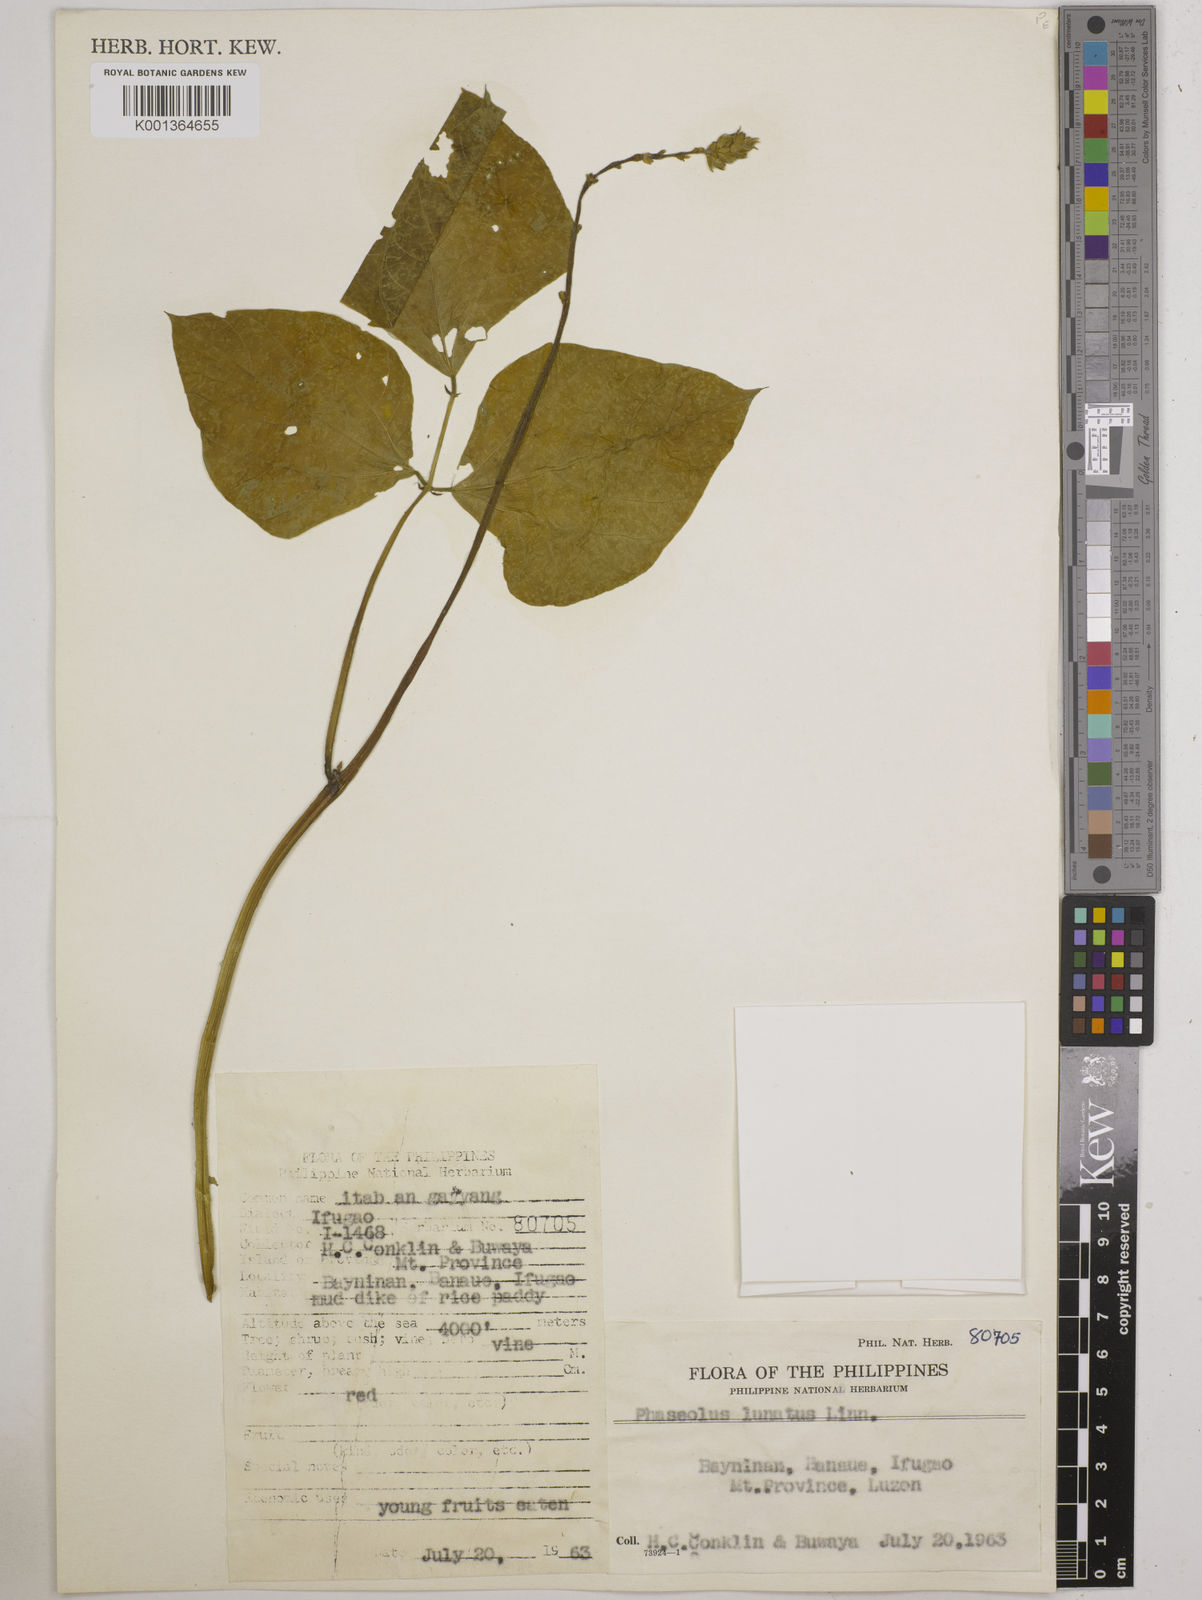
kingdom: Plantae
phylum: Tracheophyta
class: Magnoliopsida
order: Fabales
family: Fabaceae
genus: Phaseolus
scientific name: Phaseolus lunatus
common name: Sieva bean
